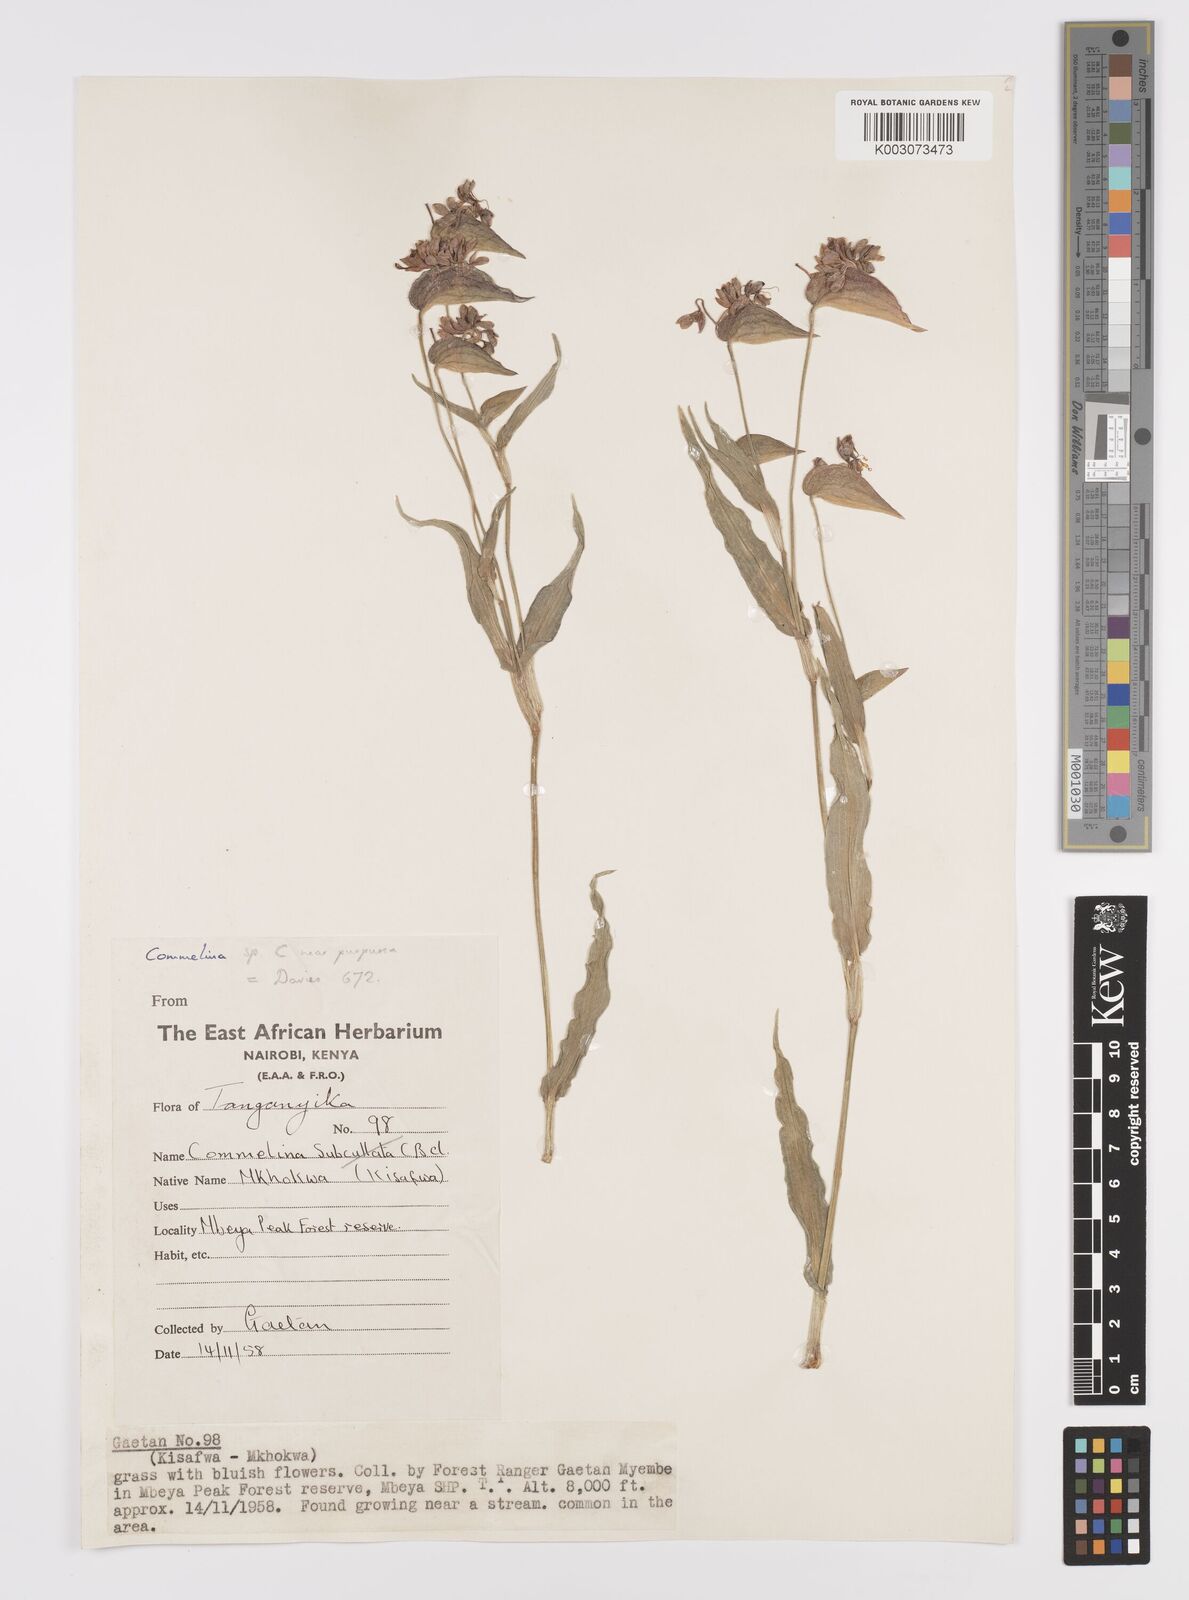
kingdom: Plantae
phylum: Tracheophyta
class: Liliopsida
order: Commelinales
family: Commelinaceae
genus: Commelina
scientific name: Commelina kituloensis
